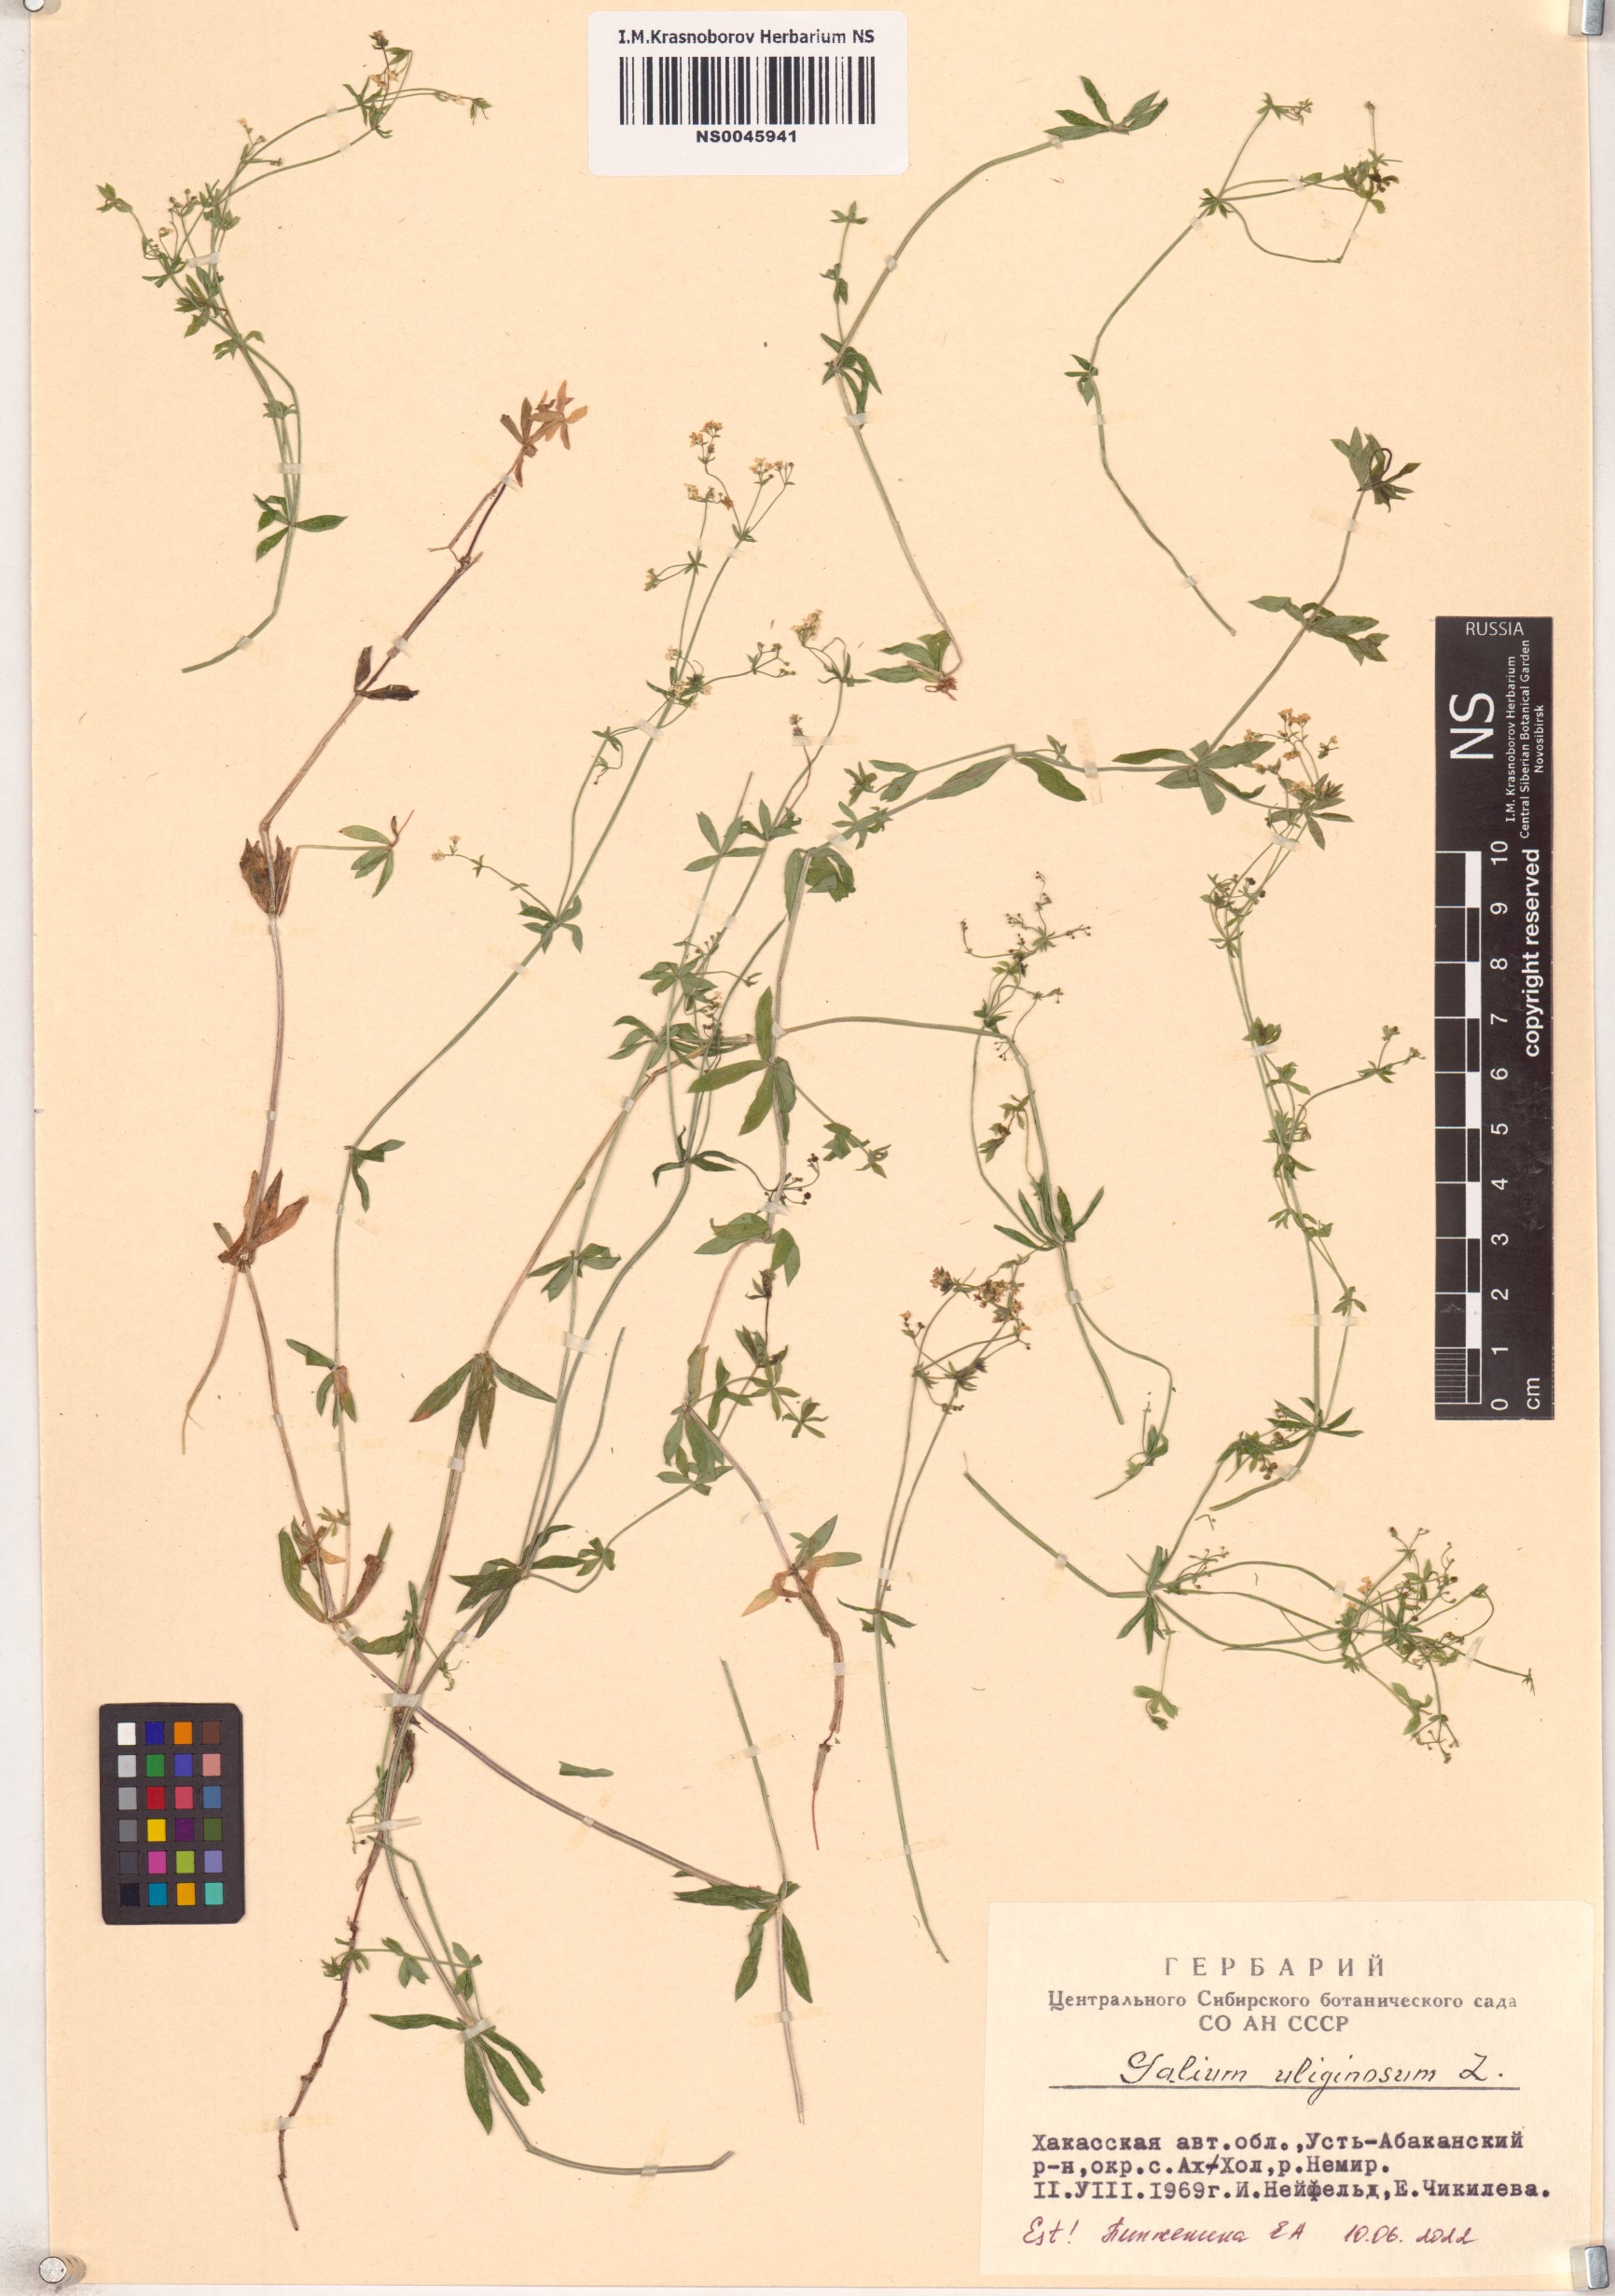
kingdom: Plantae
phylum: Tracheophyta
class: Magnoliopsida
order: Gentianales
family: Rubiaceae
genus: Galium
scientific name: Galium uliginosum
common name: Fen bedstraw
